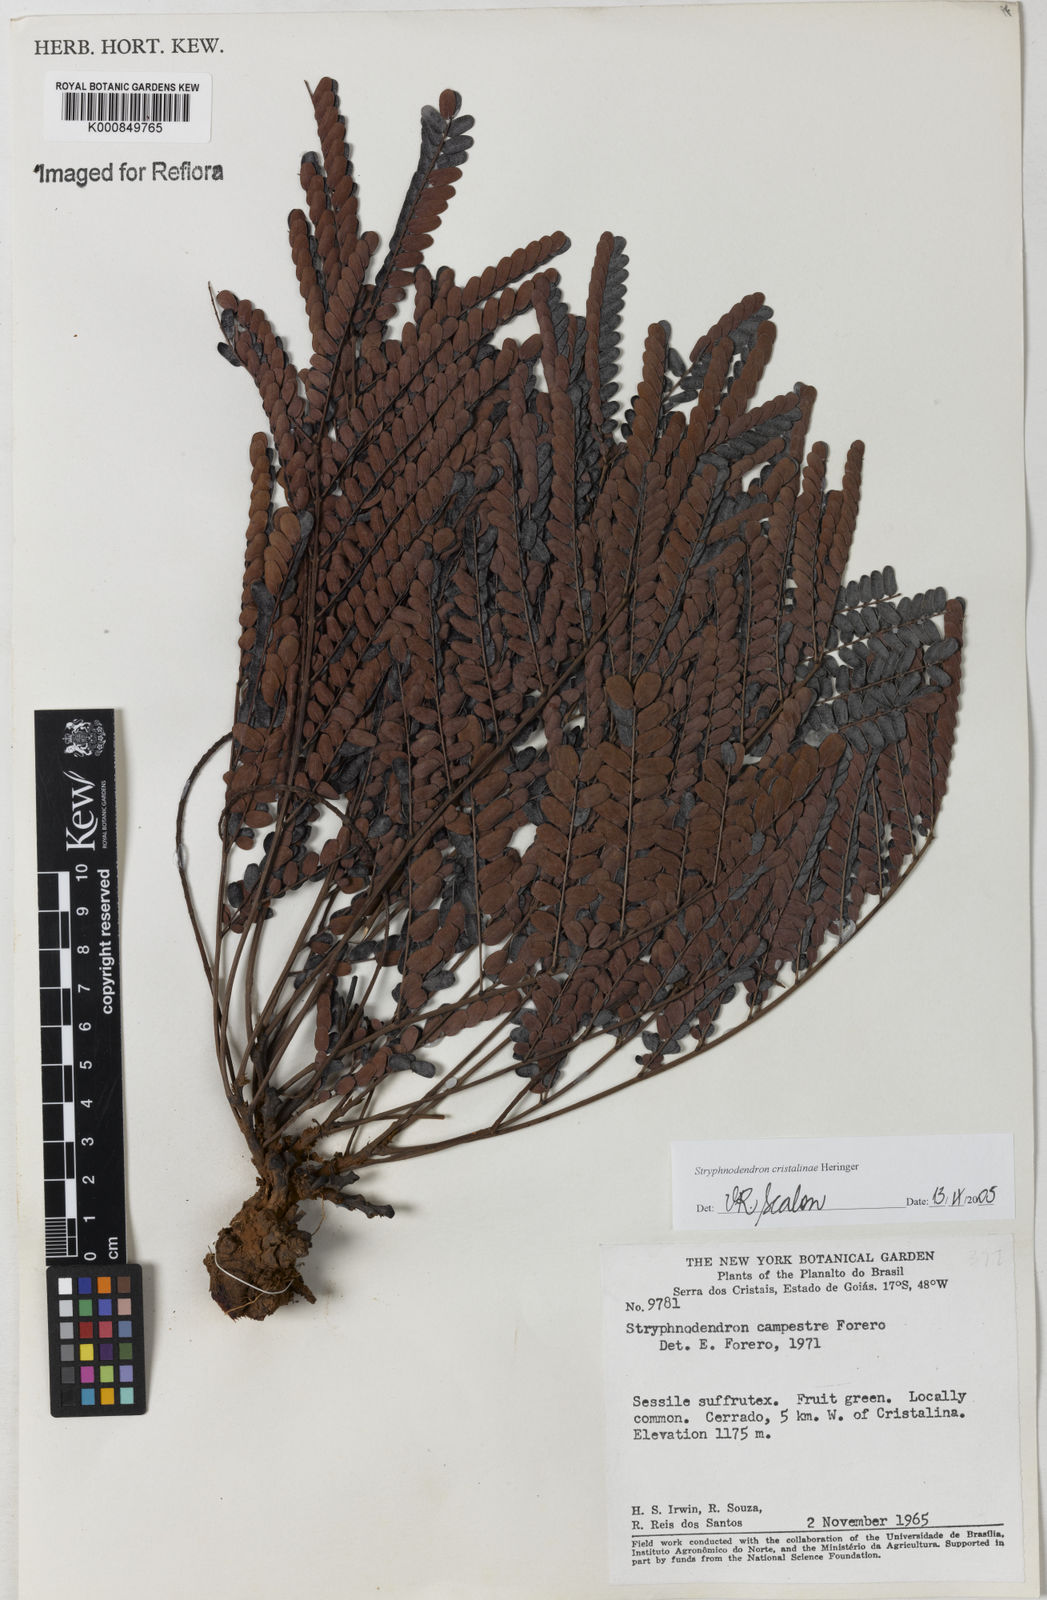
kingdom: Plantae
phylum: Tracheophyta
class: Magnoliopsida
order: Fabales
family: Fabaceae
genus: Stryphnodendron
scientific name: Stryphnodendron cristalinae
